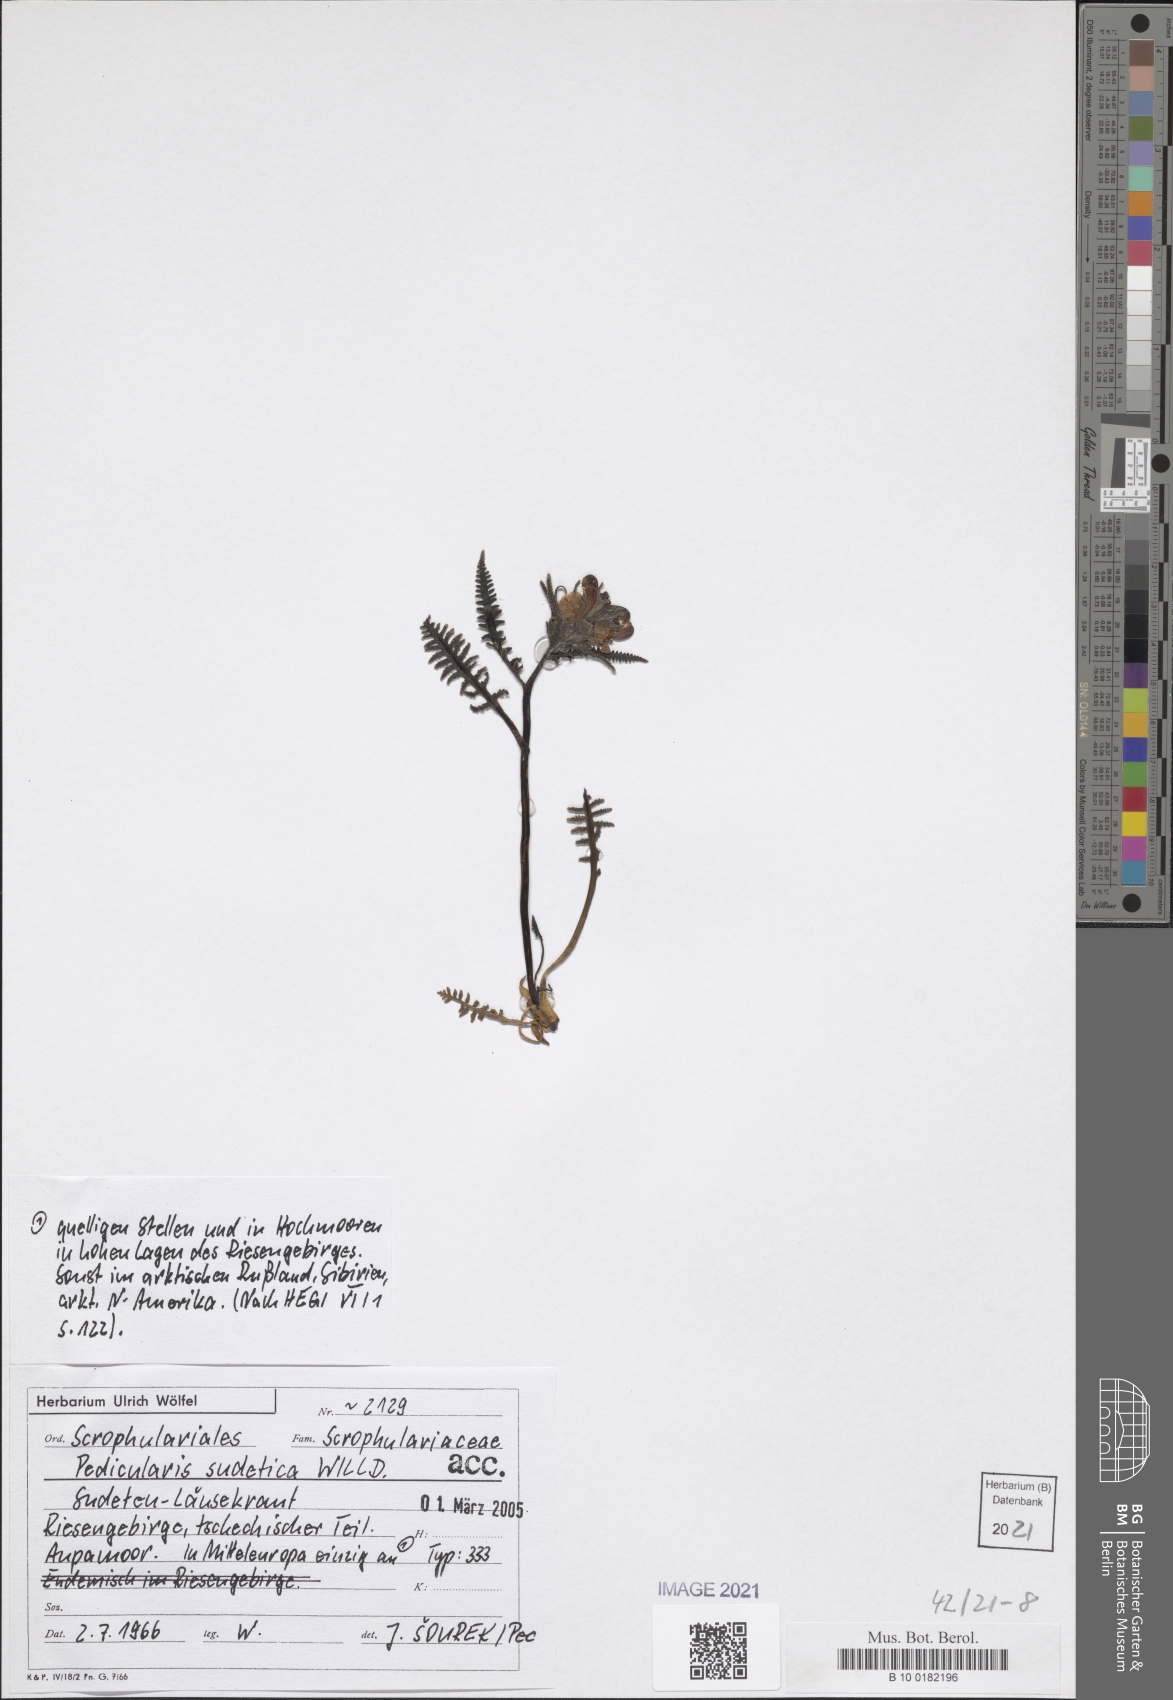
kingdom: Plantae
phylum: Tracheophyta
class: Magnoliopsida
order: Lamiales
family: Orobanchaceae
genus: Pedicularis
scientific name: Pedicularis sudetica
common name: Sudeten lousewort
